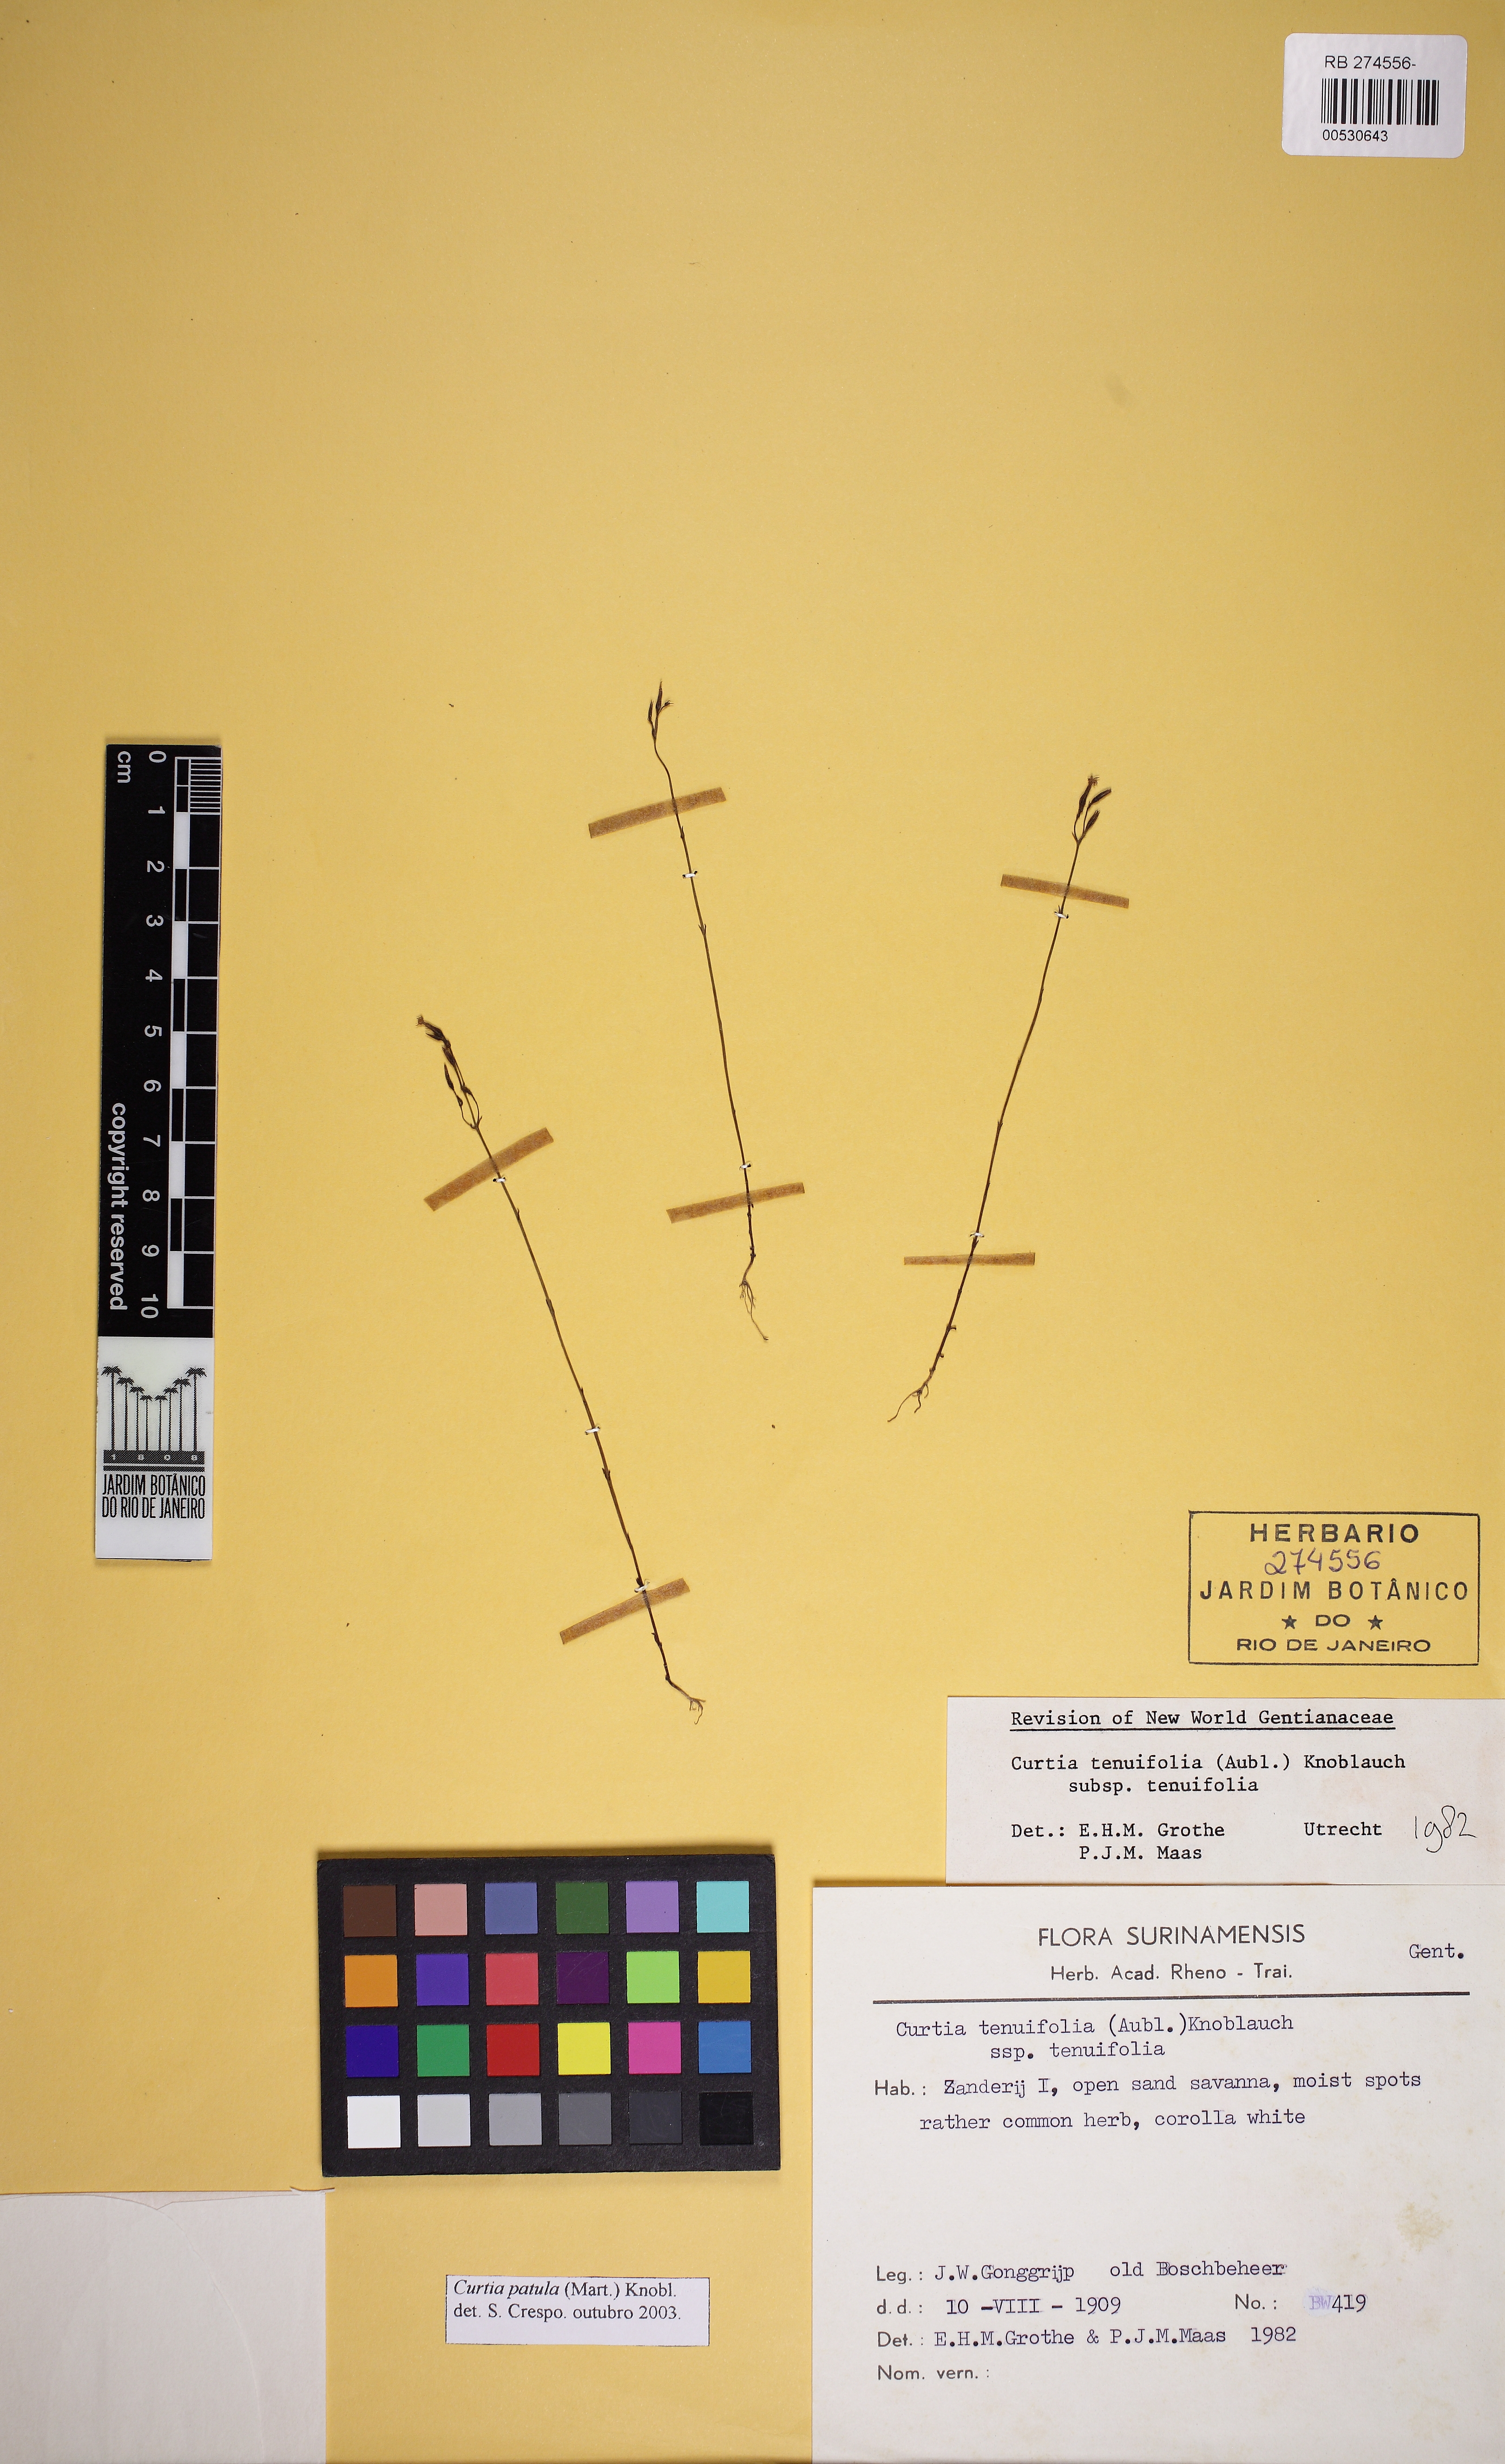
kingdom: Plantae
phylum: Tracheophyta
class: Magnoliopsida
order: Gentianales
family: Gentianaceae
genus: Curtia
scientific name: Curtia tenuifolia
